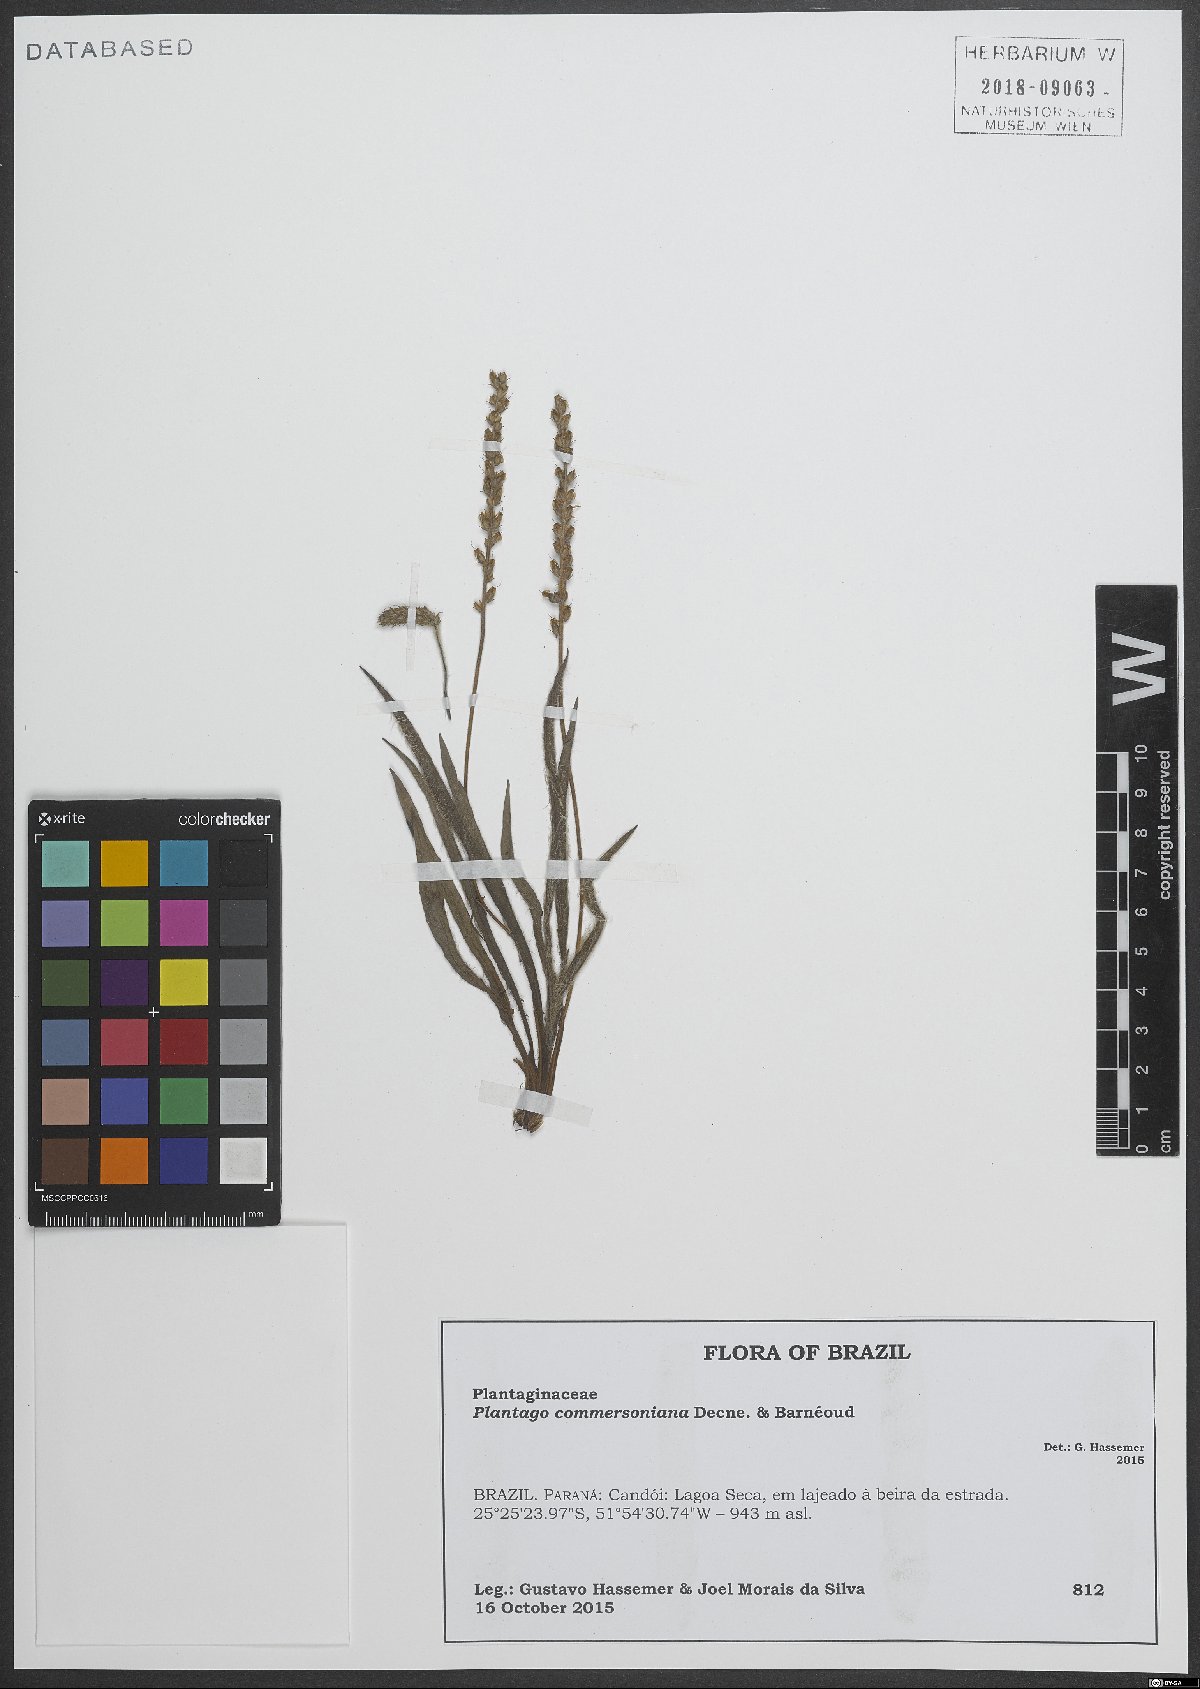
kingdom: Plantae
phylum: Tracheophyta
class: Magnoliopsida
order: Lamiales
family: Plantaginaceae
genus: Plantago
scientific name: Plantago commersoniana
